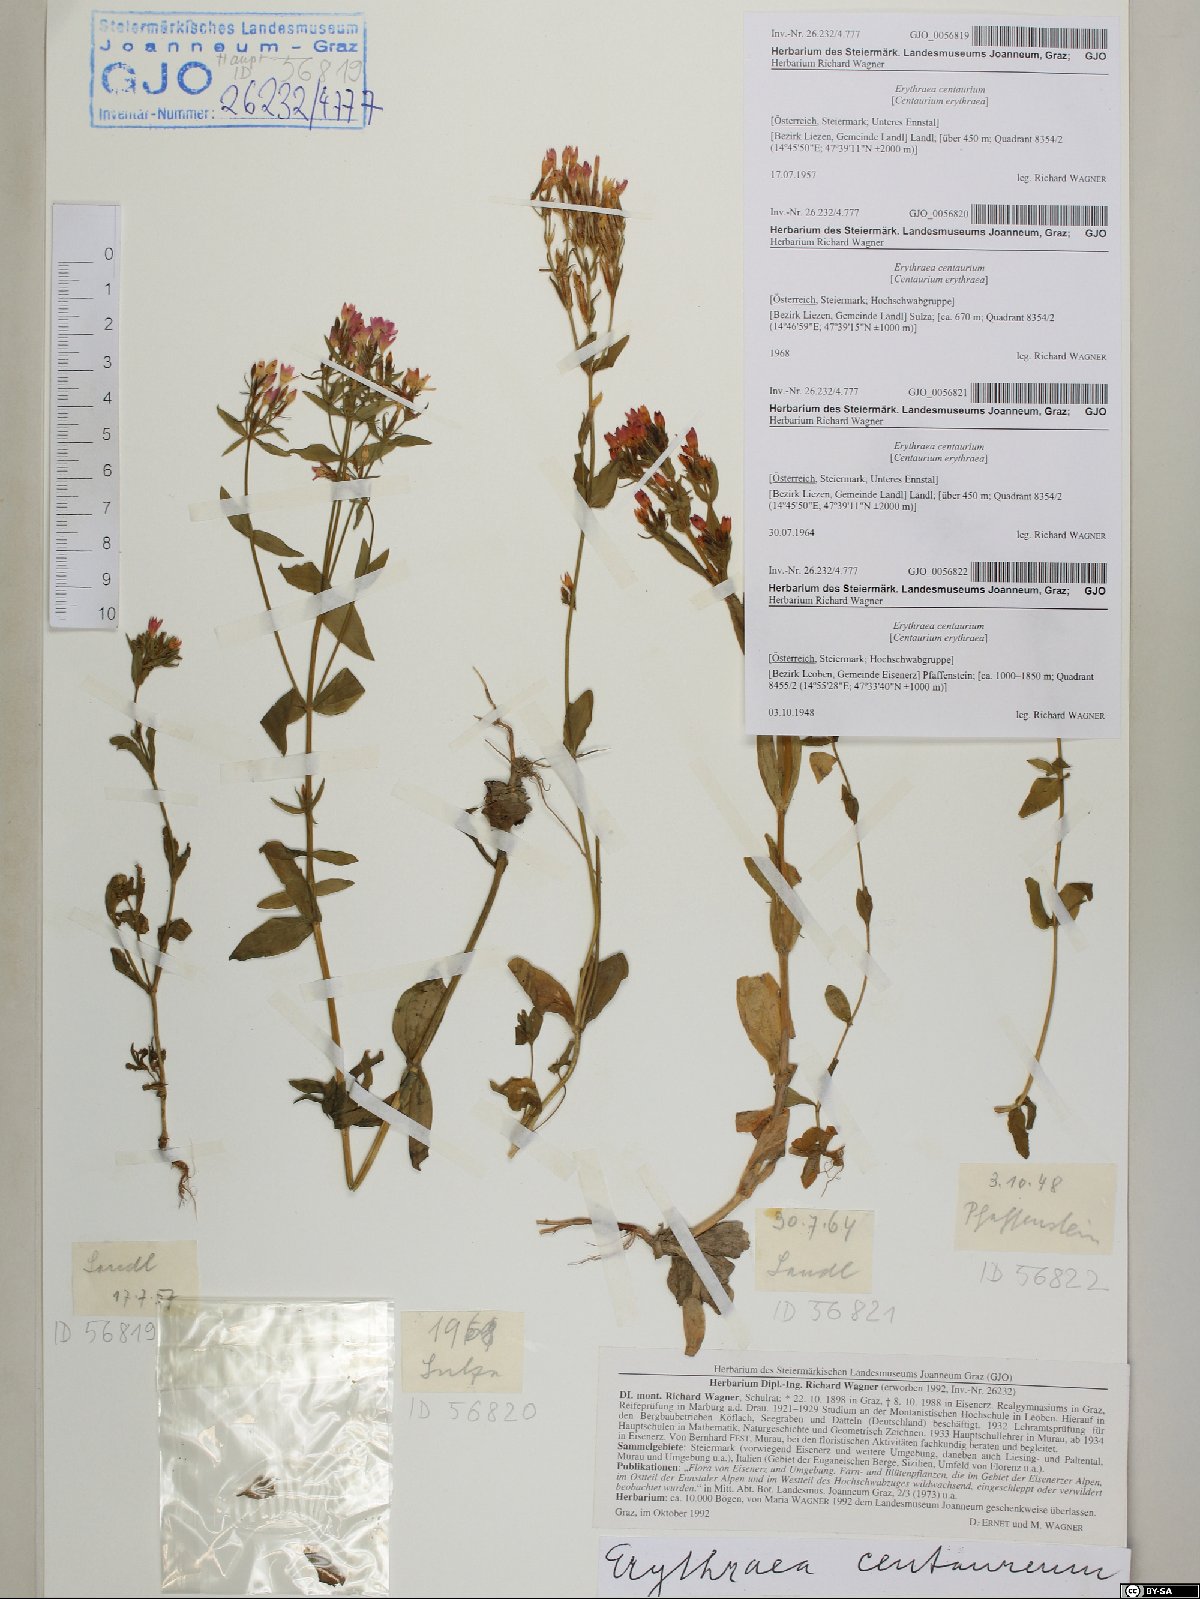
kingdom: Plantae
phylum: Tracheophyta
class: Magnoliopsida
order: Gentianales
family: Gentianaceae
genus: Centaurium
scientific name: Centaurium erythraea
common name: Common centaury
